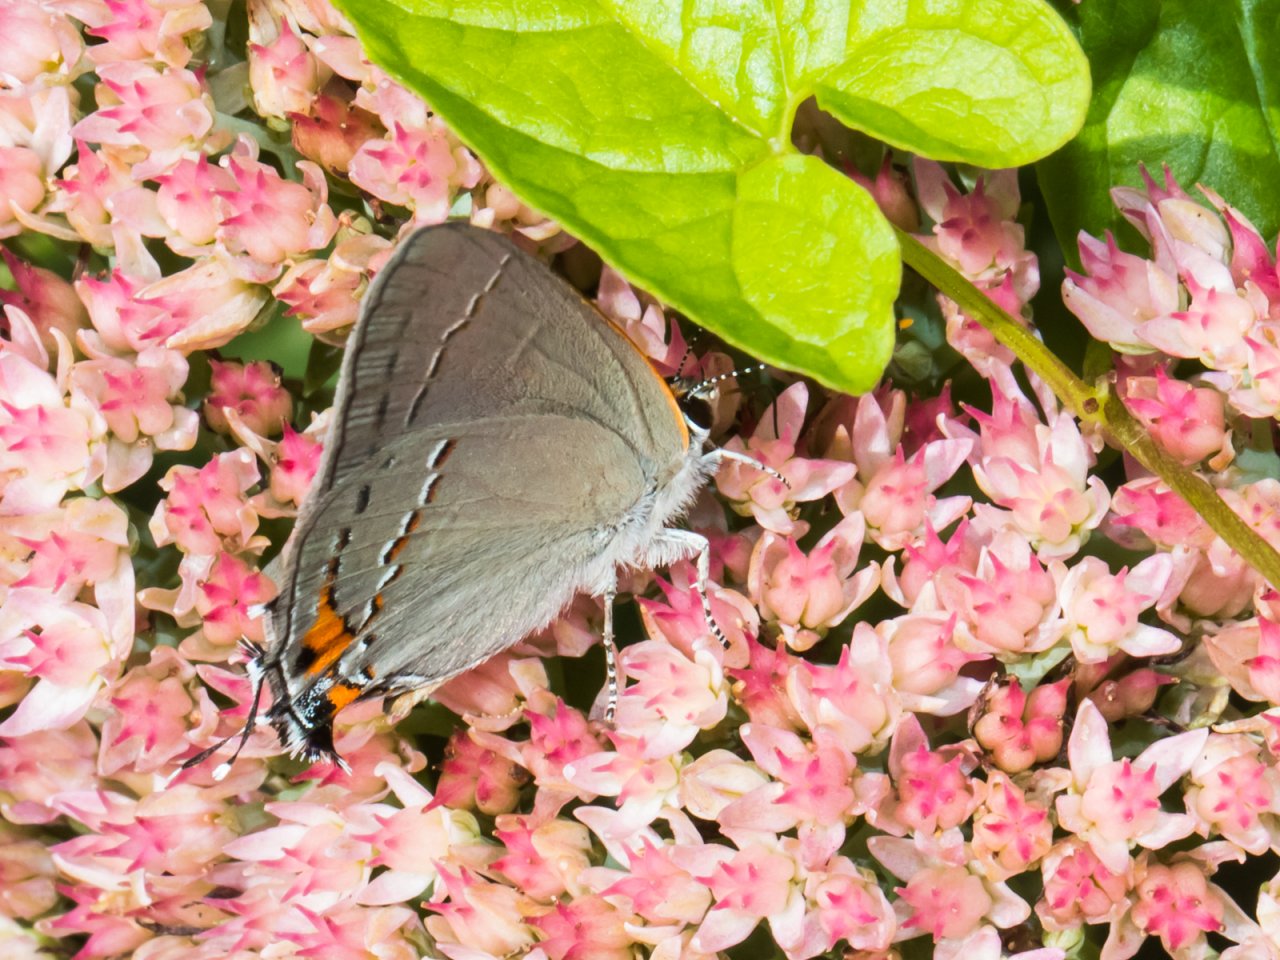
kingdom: Animalia
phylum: Arthropoda
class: Insecta
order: Lepidoptera
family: Lycaenidae
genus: Strymon
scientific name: Strymon melinus
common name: Gray Hairstreak
